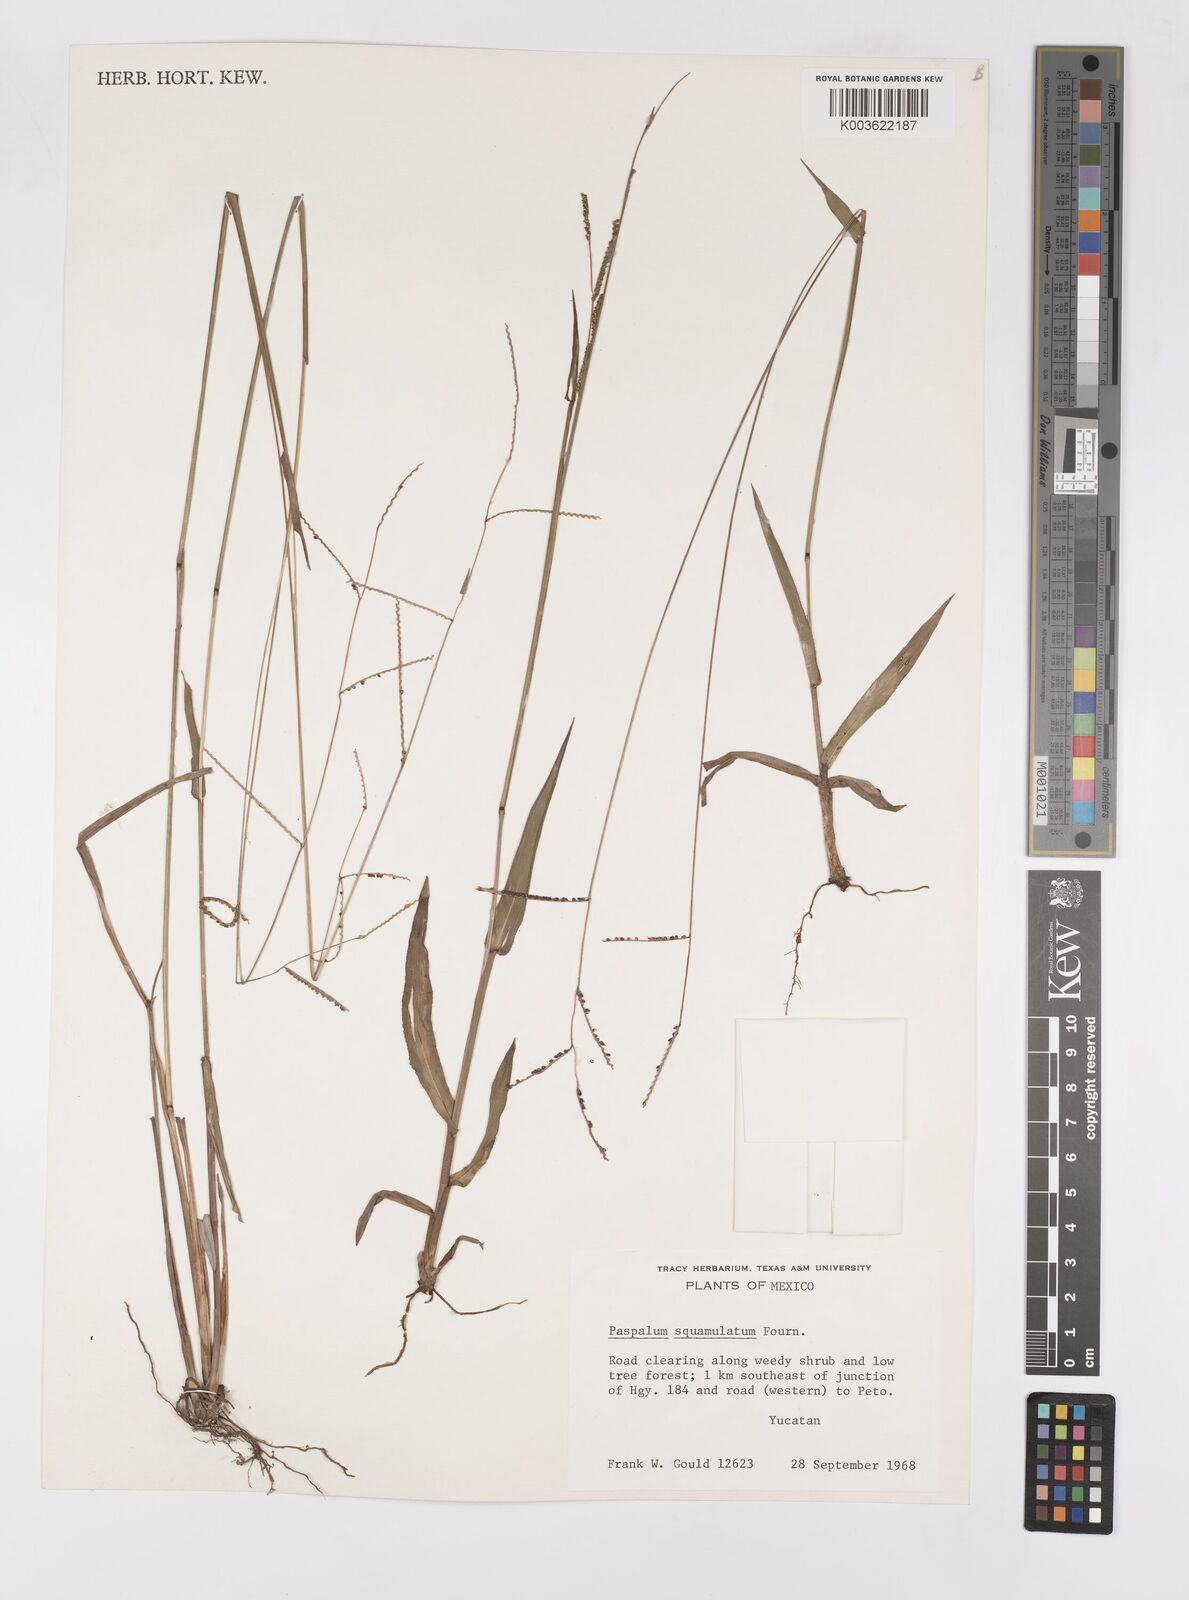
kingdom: Plantae
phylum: Tracheophyta
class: Liliopsida
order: Poales
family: Poaceae
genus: Paspalum
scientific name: Paspalum blodgettii
